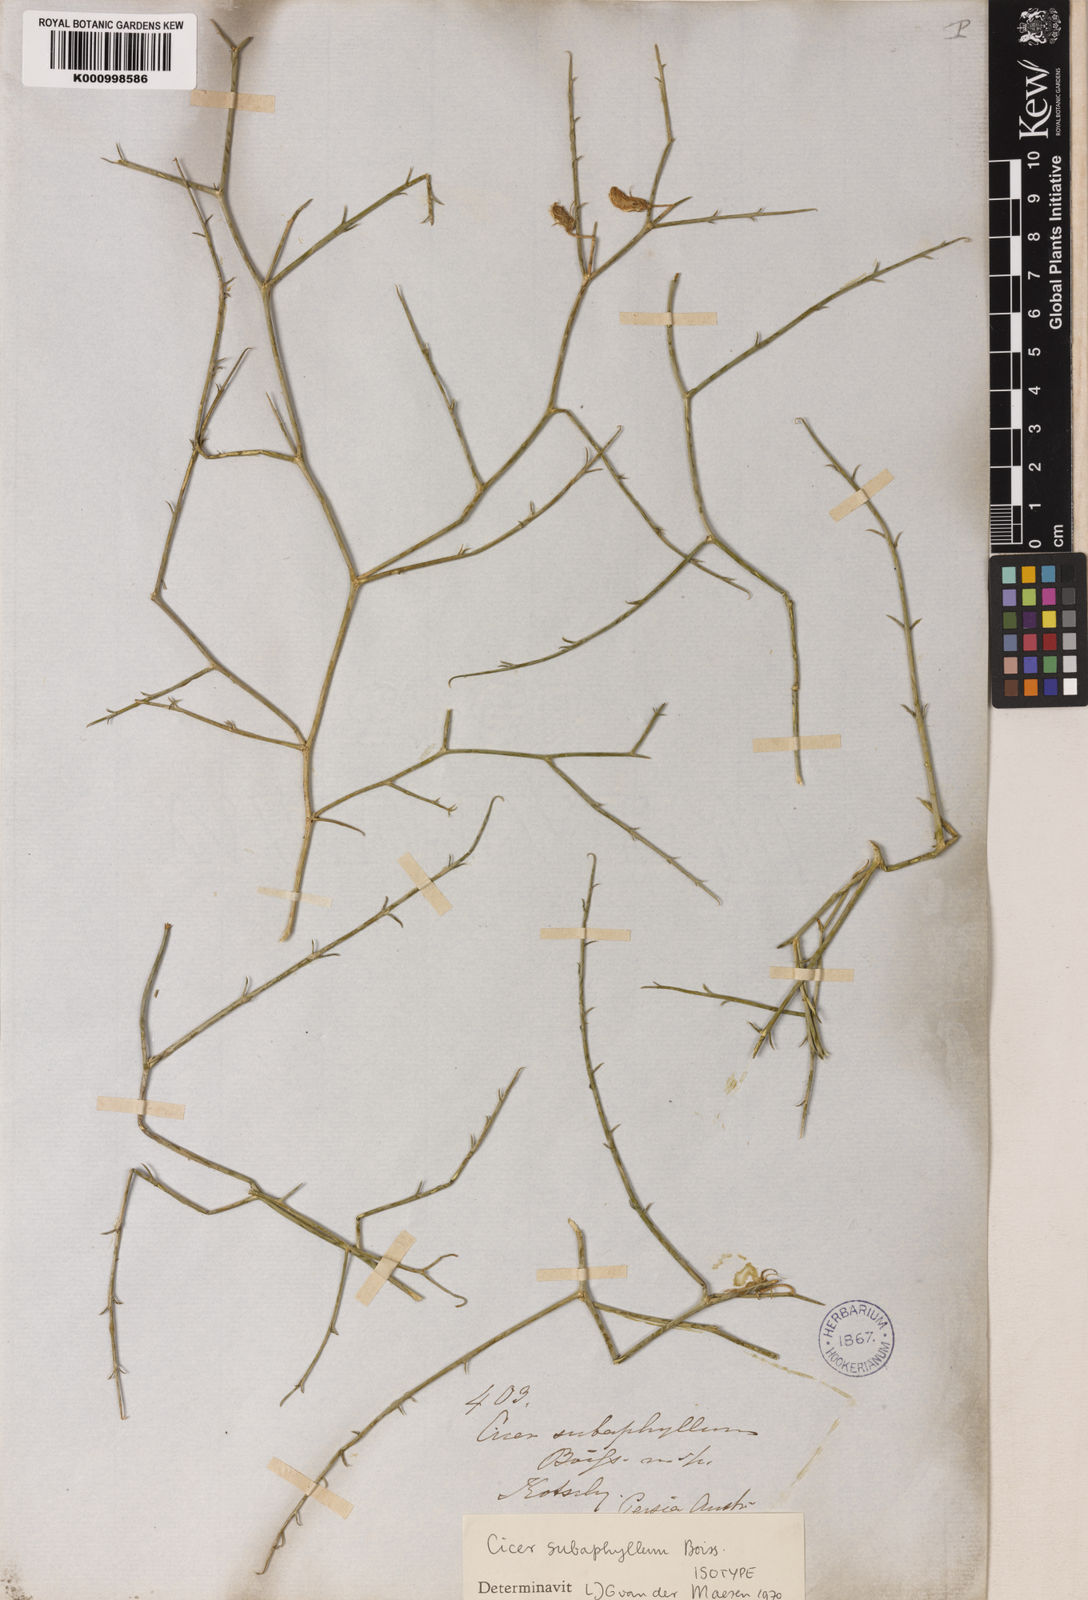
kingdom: Plantae
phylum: Tracheophyta
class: Magnoliopsida
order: Fabales
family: Fabaceae
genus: Cicer
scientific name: Cicer subaphyllum
